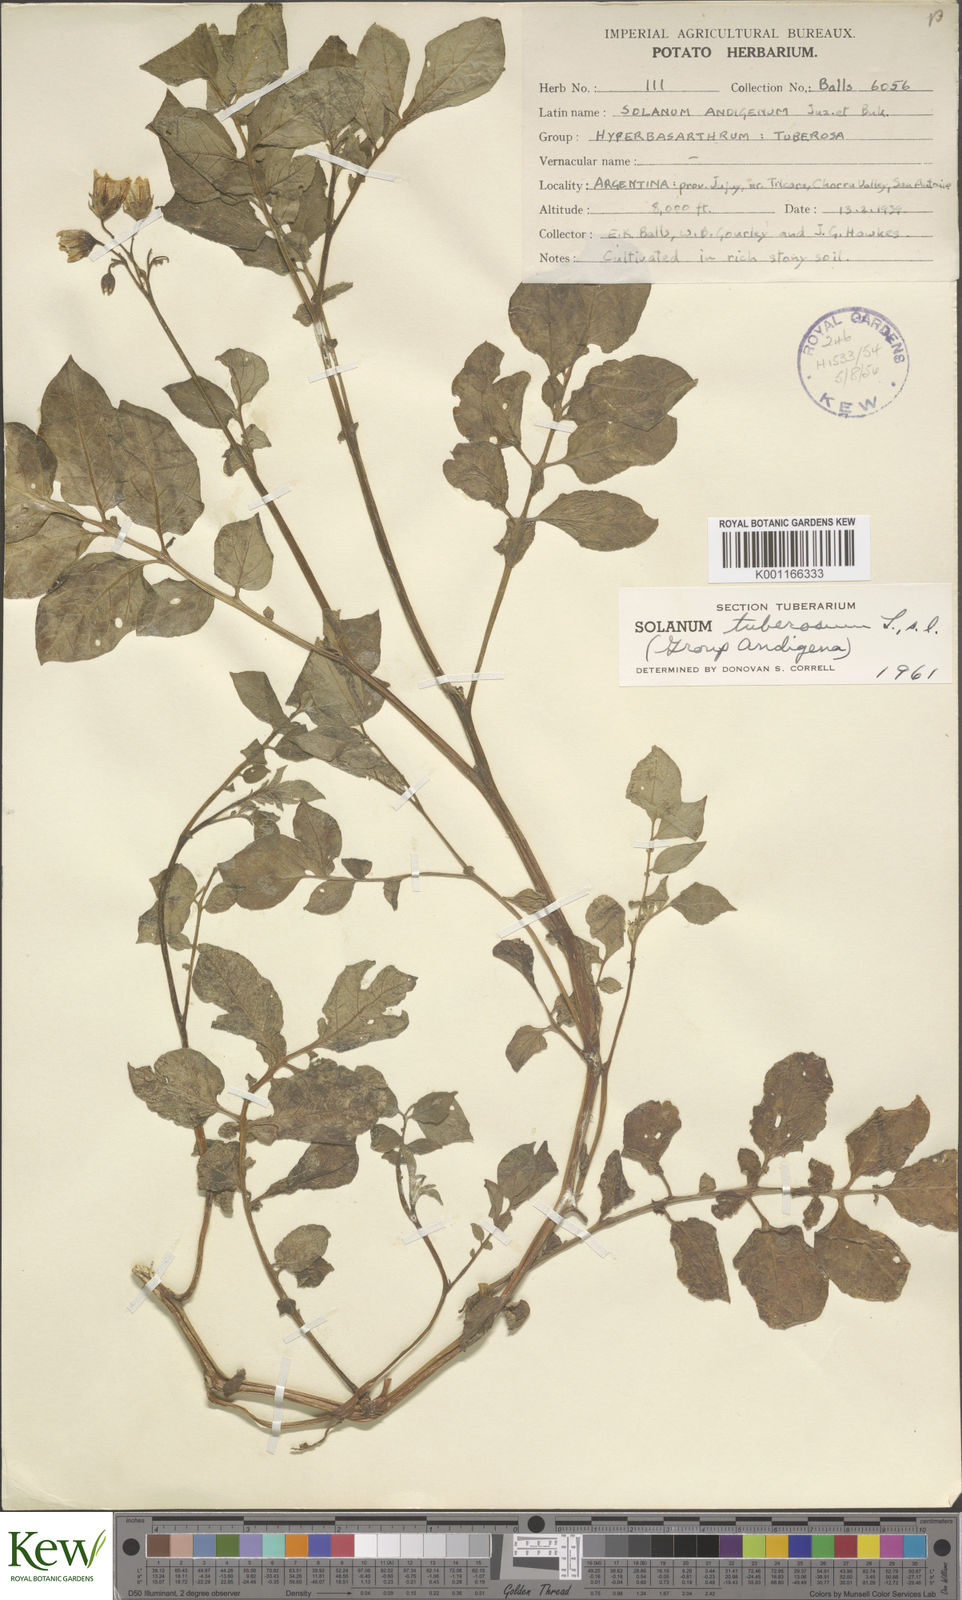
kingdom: Plantae
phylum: Tracheophyta
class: Magnoliopsida
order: Solanales
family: Solanaceae
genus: Solanum
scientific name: Solanum tuberosum
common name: Potato
